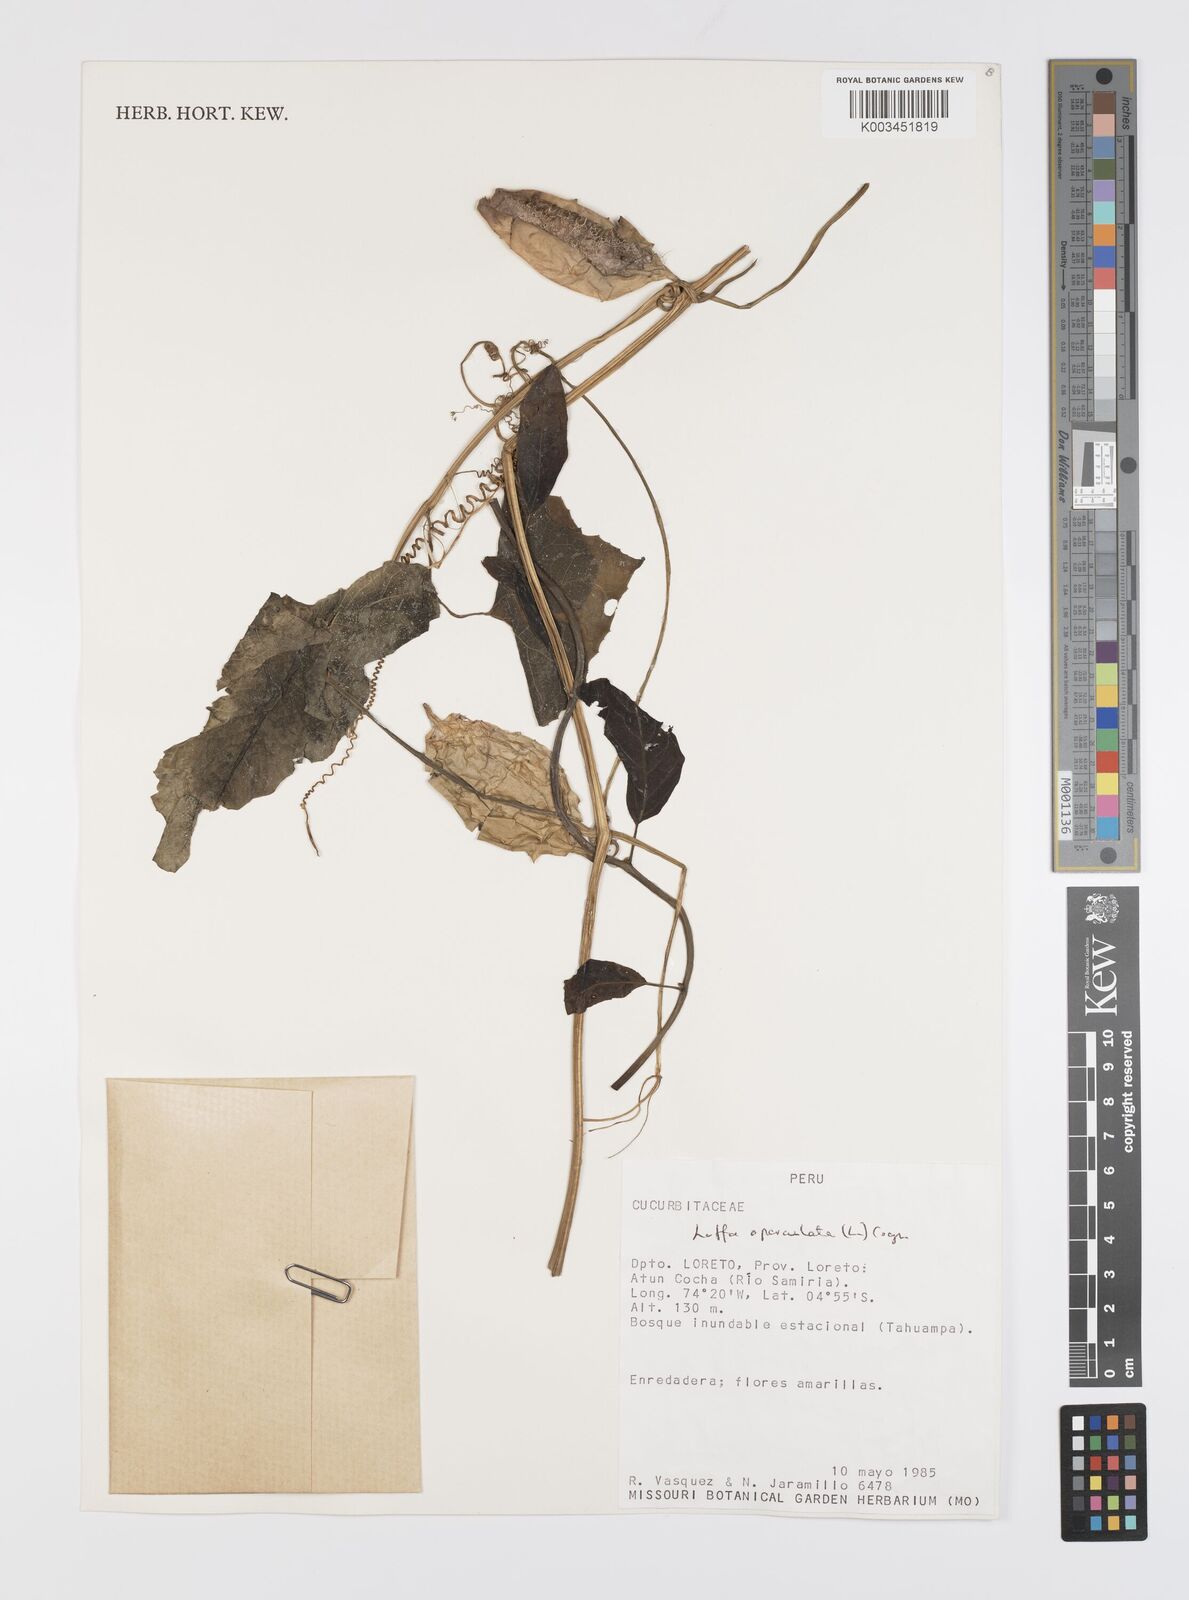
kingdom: Plantae
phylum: Tracheophyta
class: Magnoliopsida
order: Cucurbitales
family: Cucurbitaceae
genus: Luffa
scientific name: Luffa operculata
